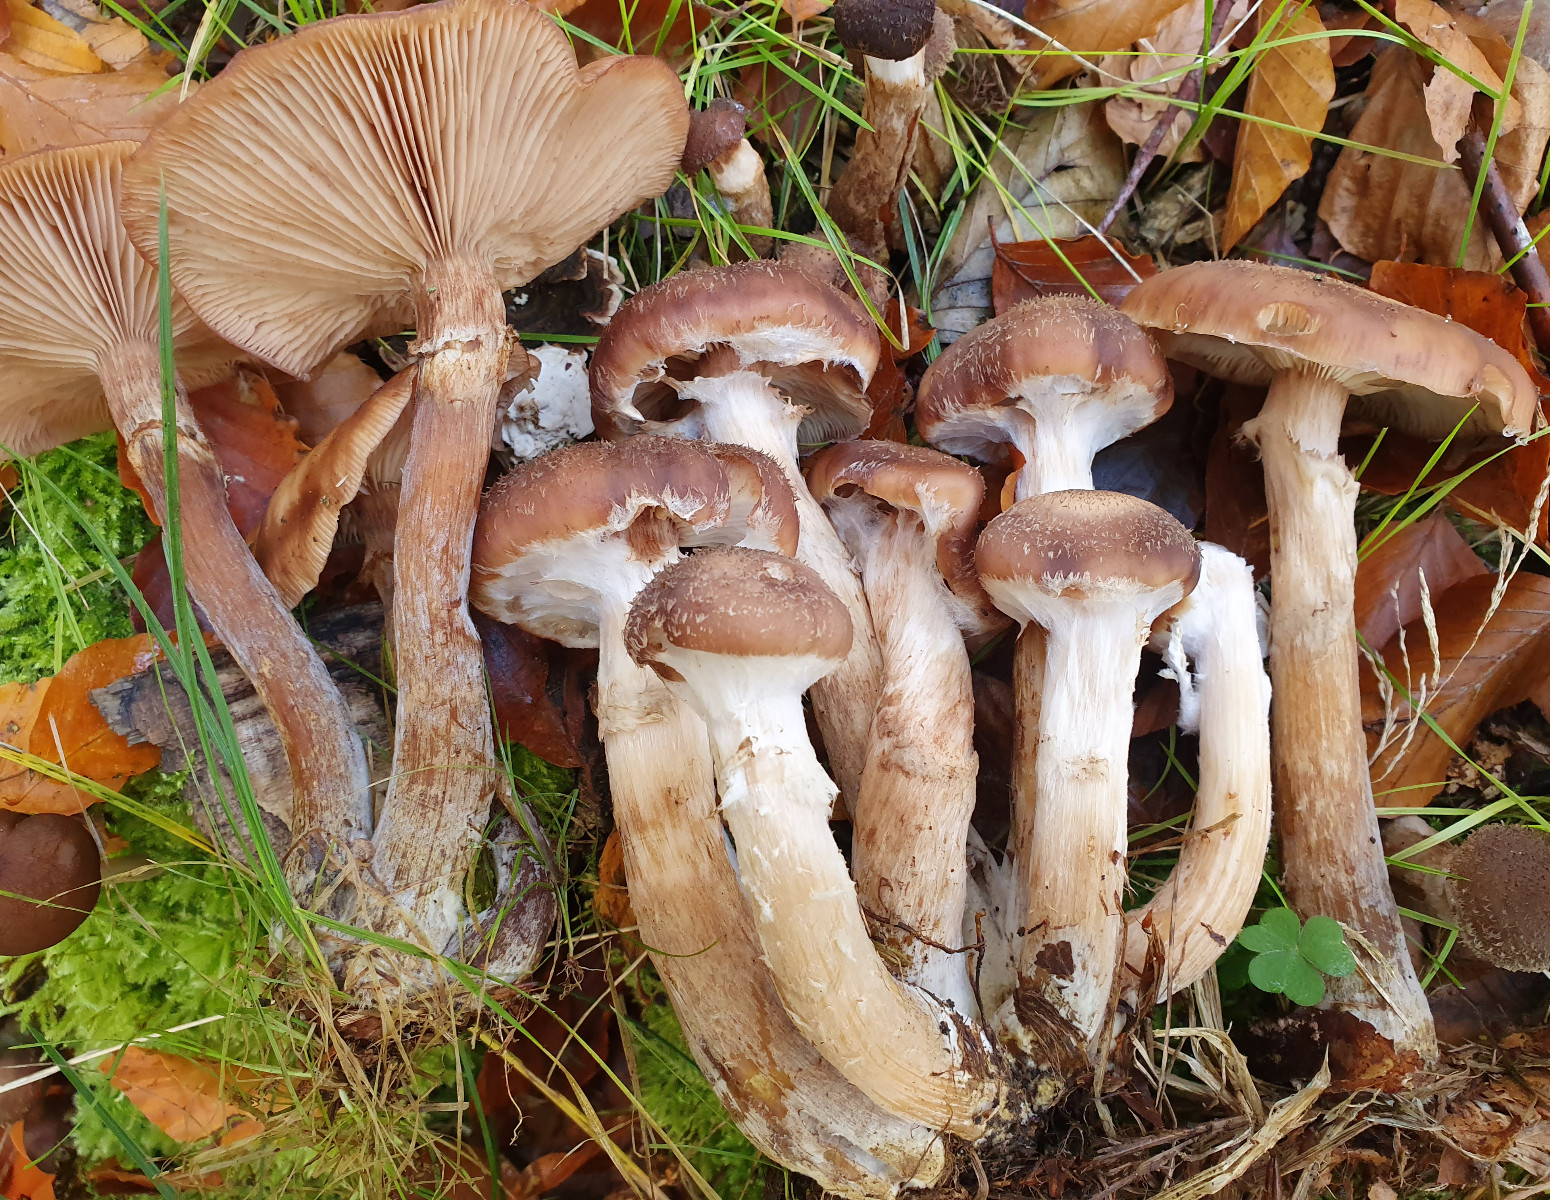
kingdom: Fungi
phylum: Basidiomycota
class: Agaricomycetes
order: Agaricales
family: Physalacriaceae
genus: Armillaria
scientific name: Armillaria lutea
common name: køllestokket honningsvamp
